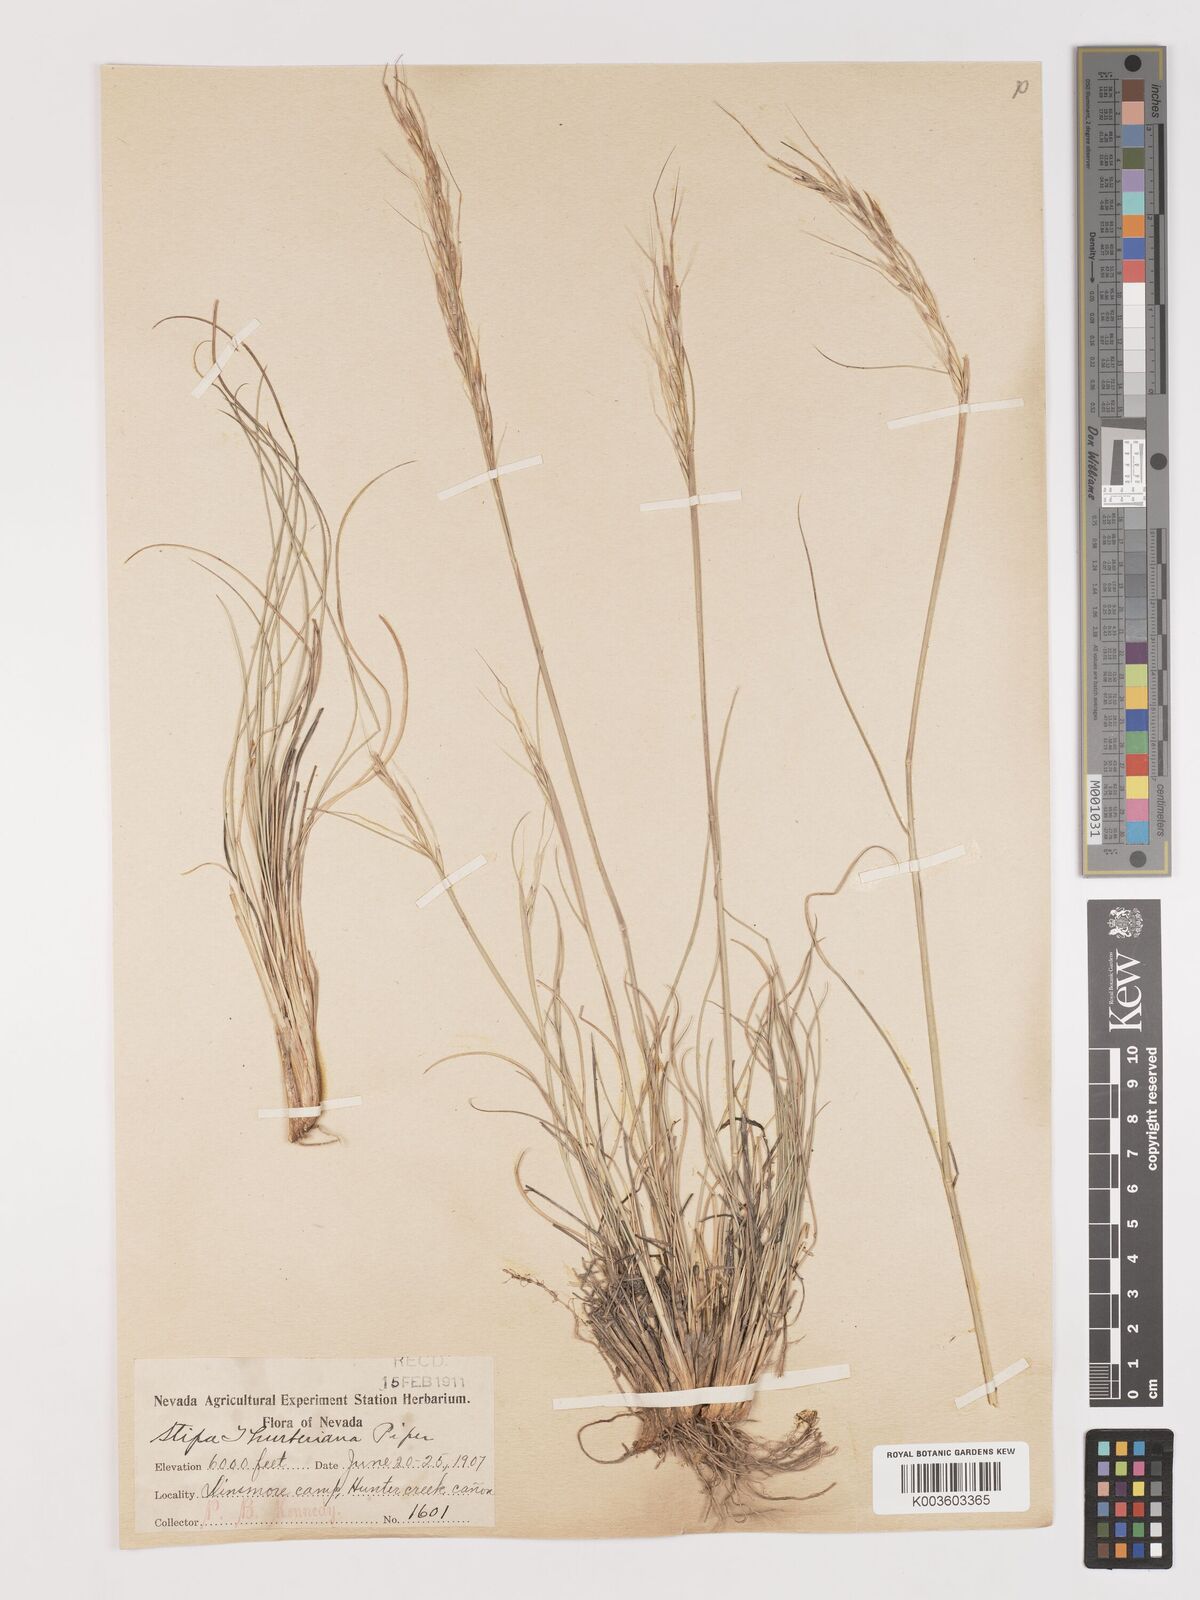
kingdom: Plantae
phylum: Tracheophyta
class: Liliopsida
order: Poales
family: Poaceae
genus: Eriocoma
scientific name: Eriocoma thurberiana
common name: Thurber's needlegrass
